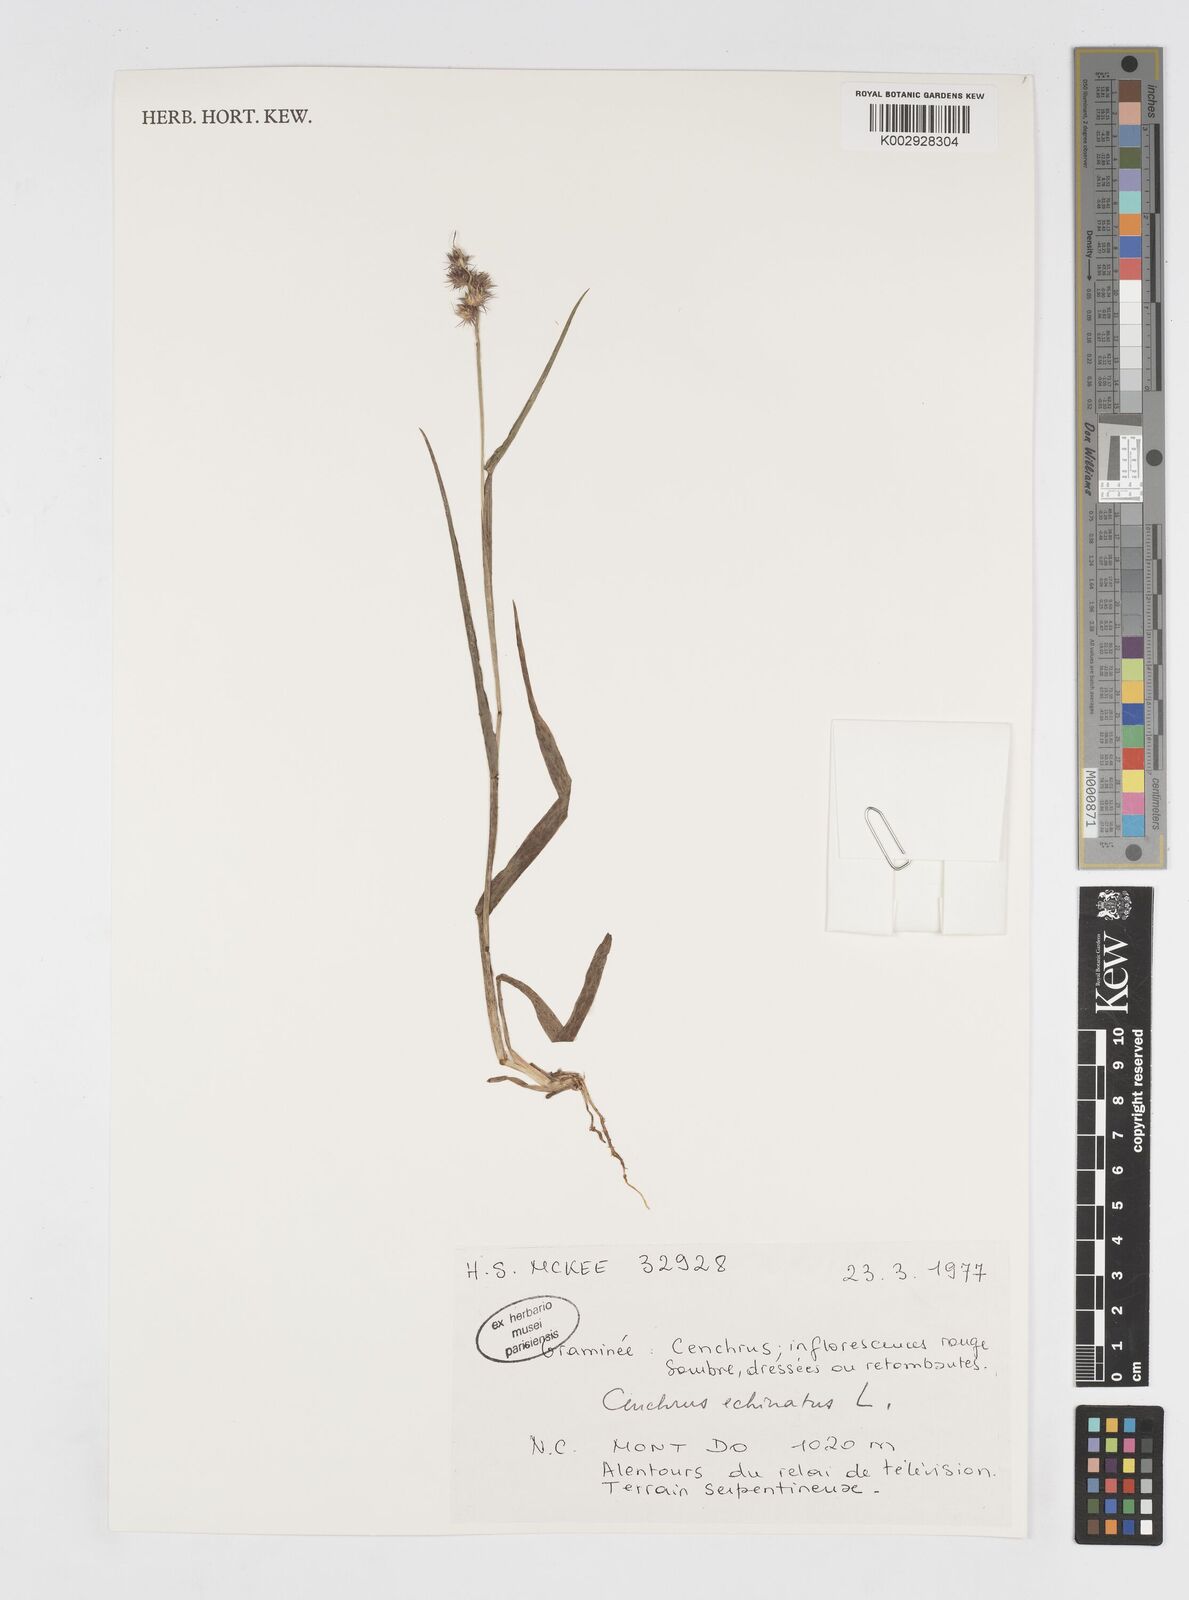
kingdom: Plantae
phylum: Tracheophyta
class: Liliopsida
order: Poales
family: Poaceae
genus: Cenchrus
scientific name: Cenchrus echinatus
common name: Southern sandbur
